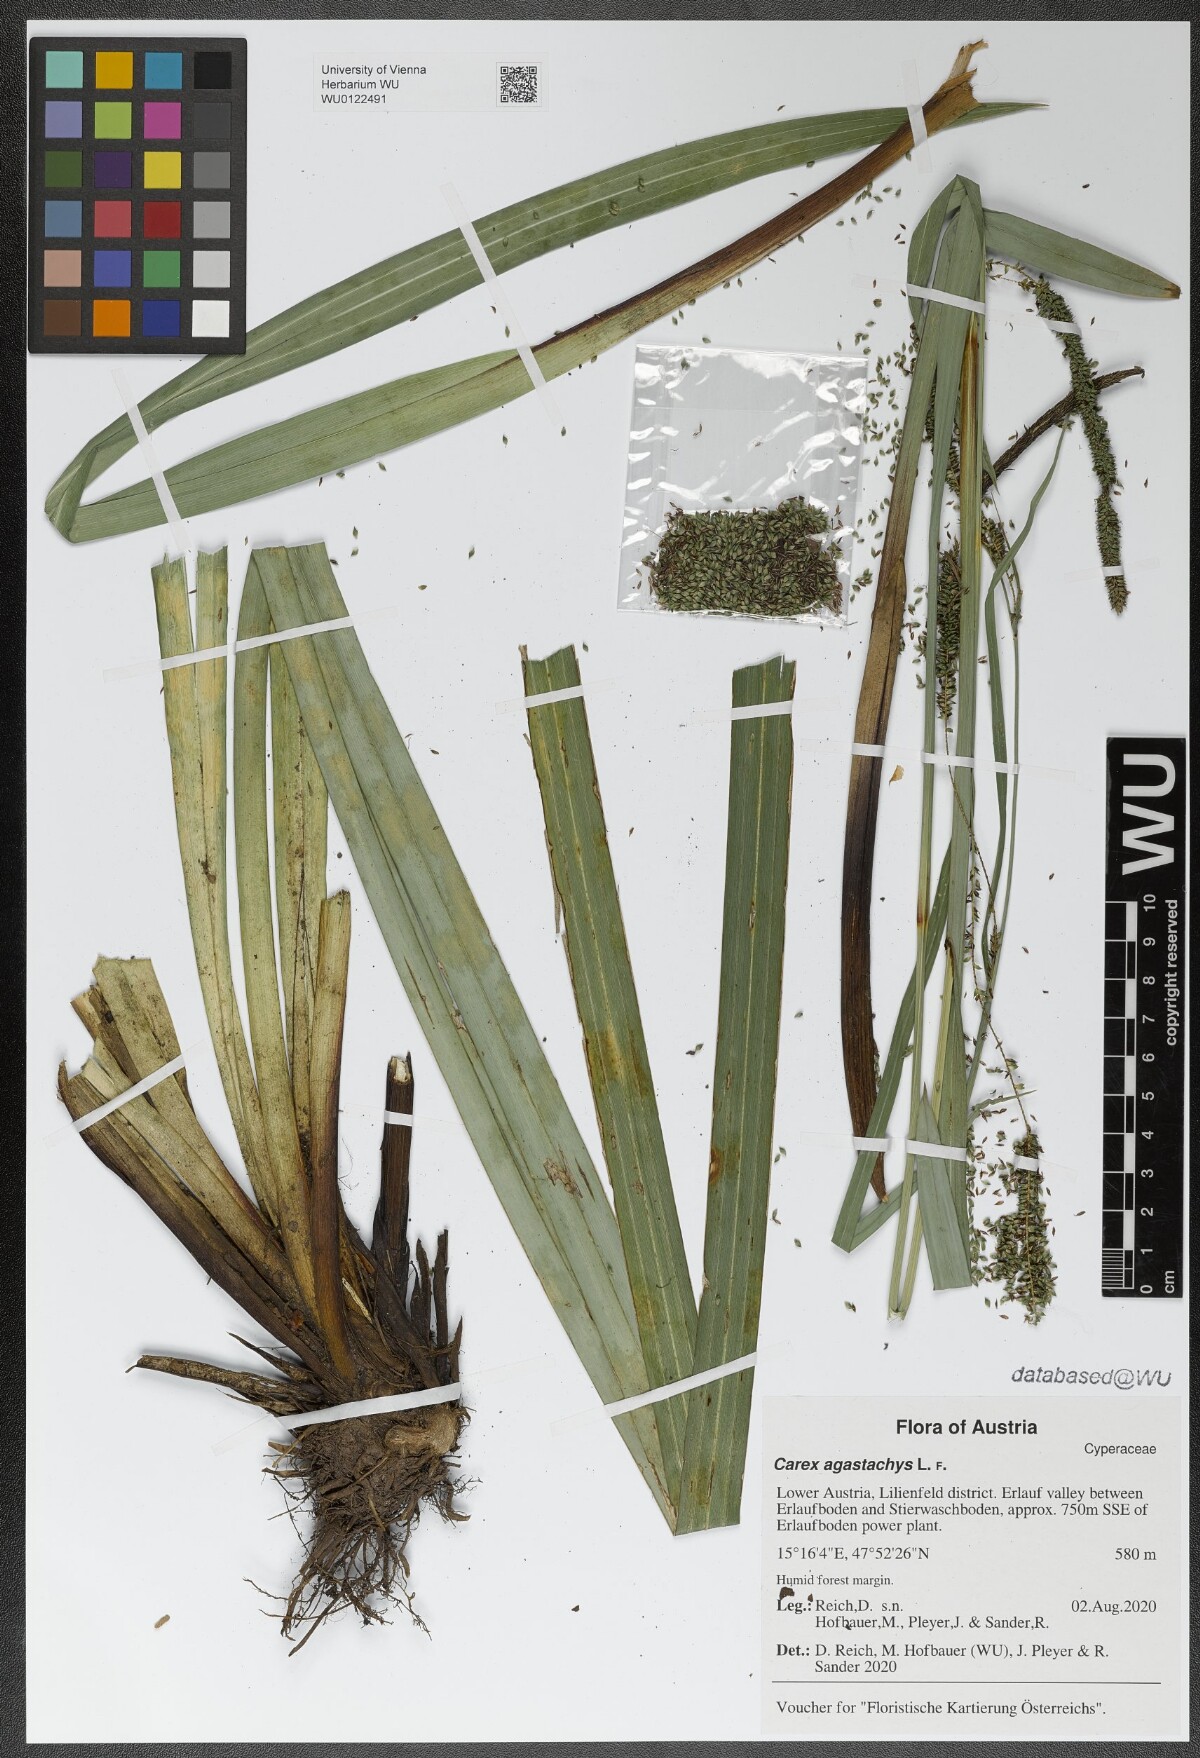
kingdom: Plantae
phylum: Tracheophyta
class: Liliopsida
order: Poales
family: Cyperaceae
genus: Carex
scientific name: Carex agastachys
